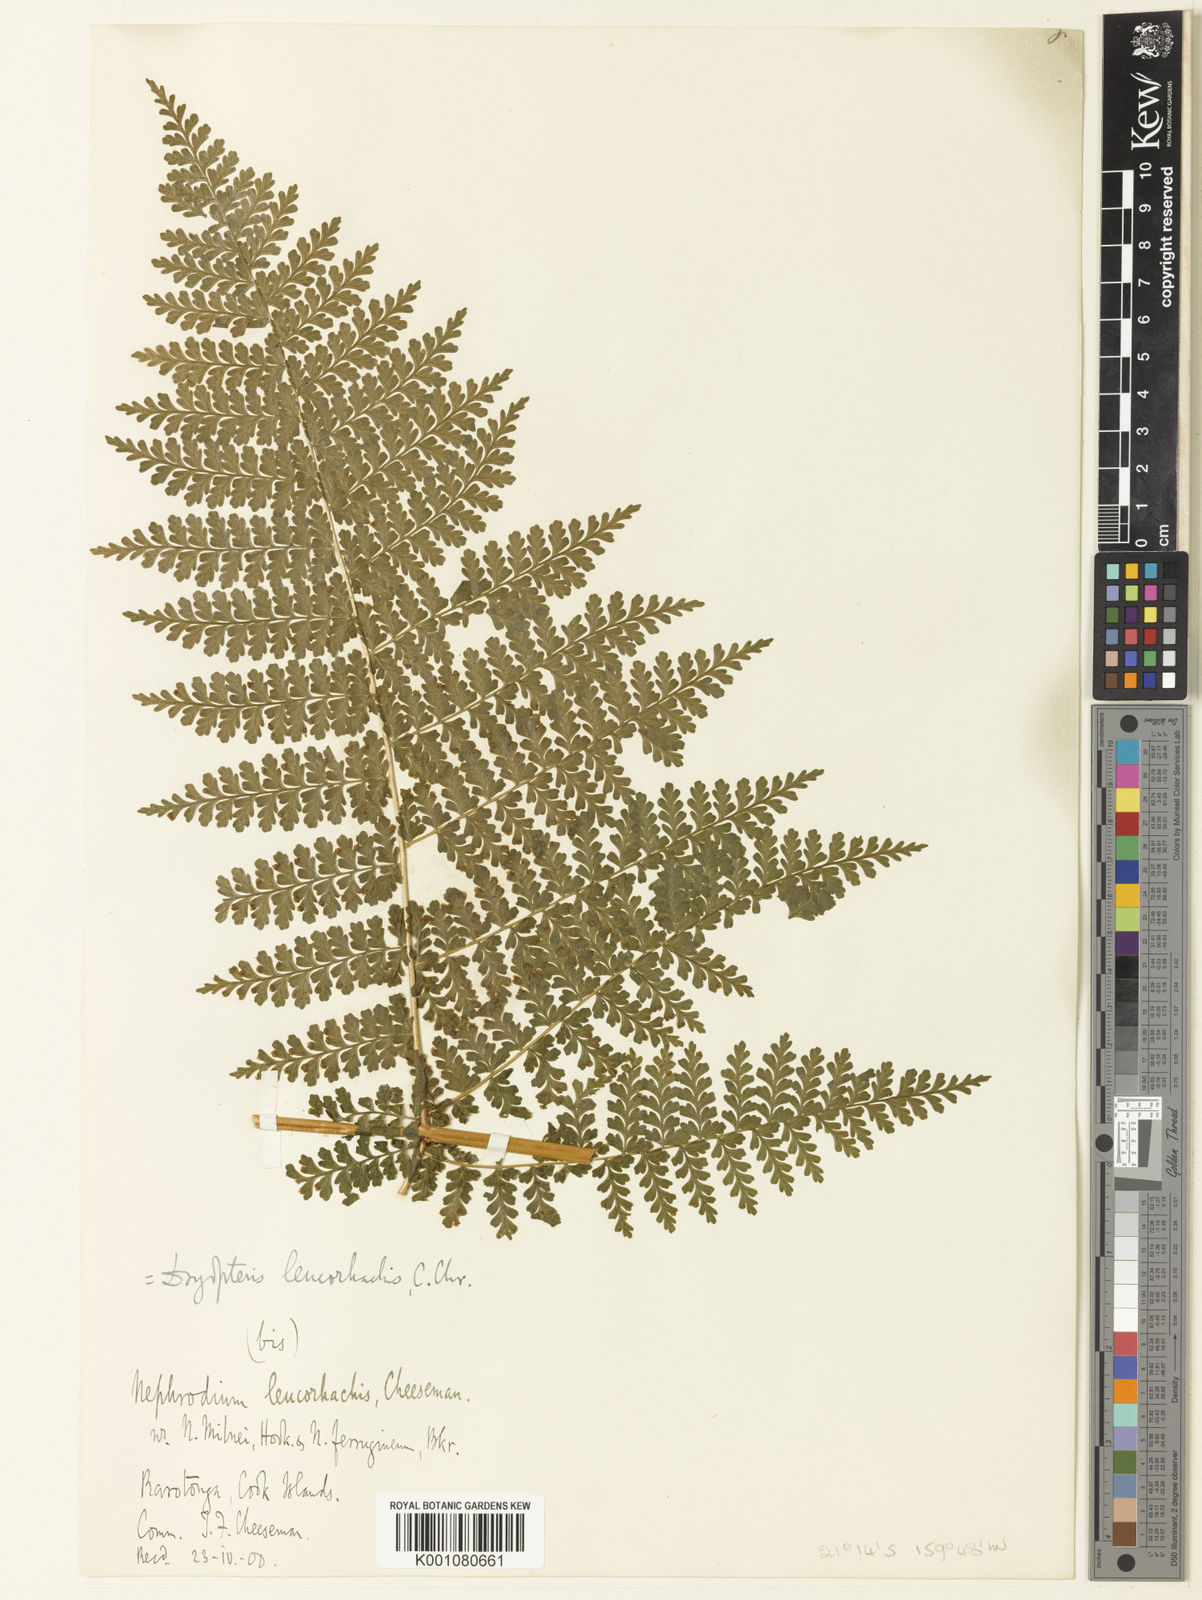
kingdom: Plantae
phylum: Tracheophyta
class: Polypodiopsida
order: Polypodiales
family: Dryopteridaceae
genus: Dryopteris
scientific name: Dryopteris leucorhachis
